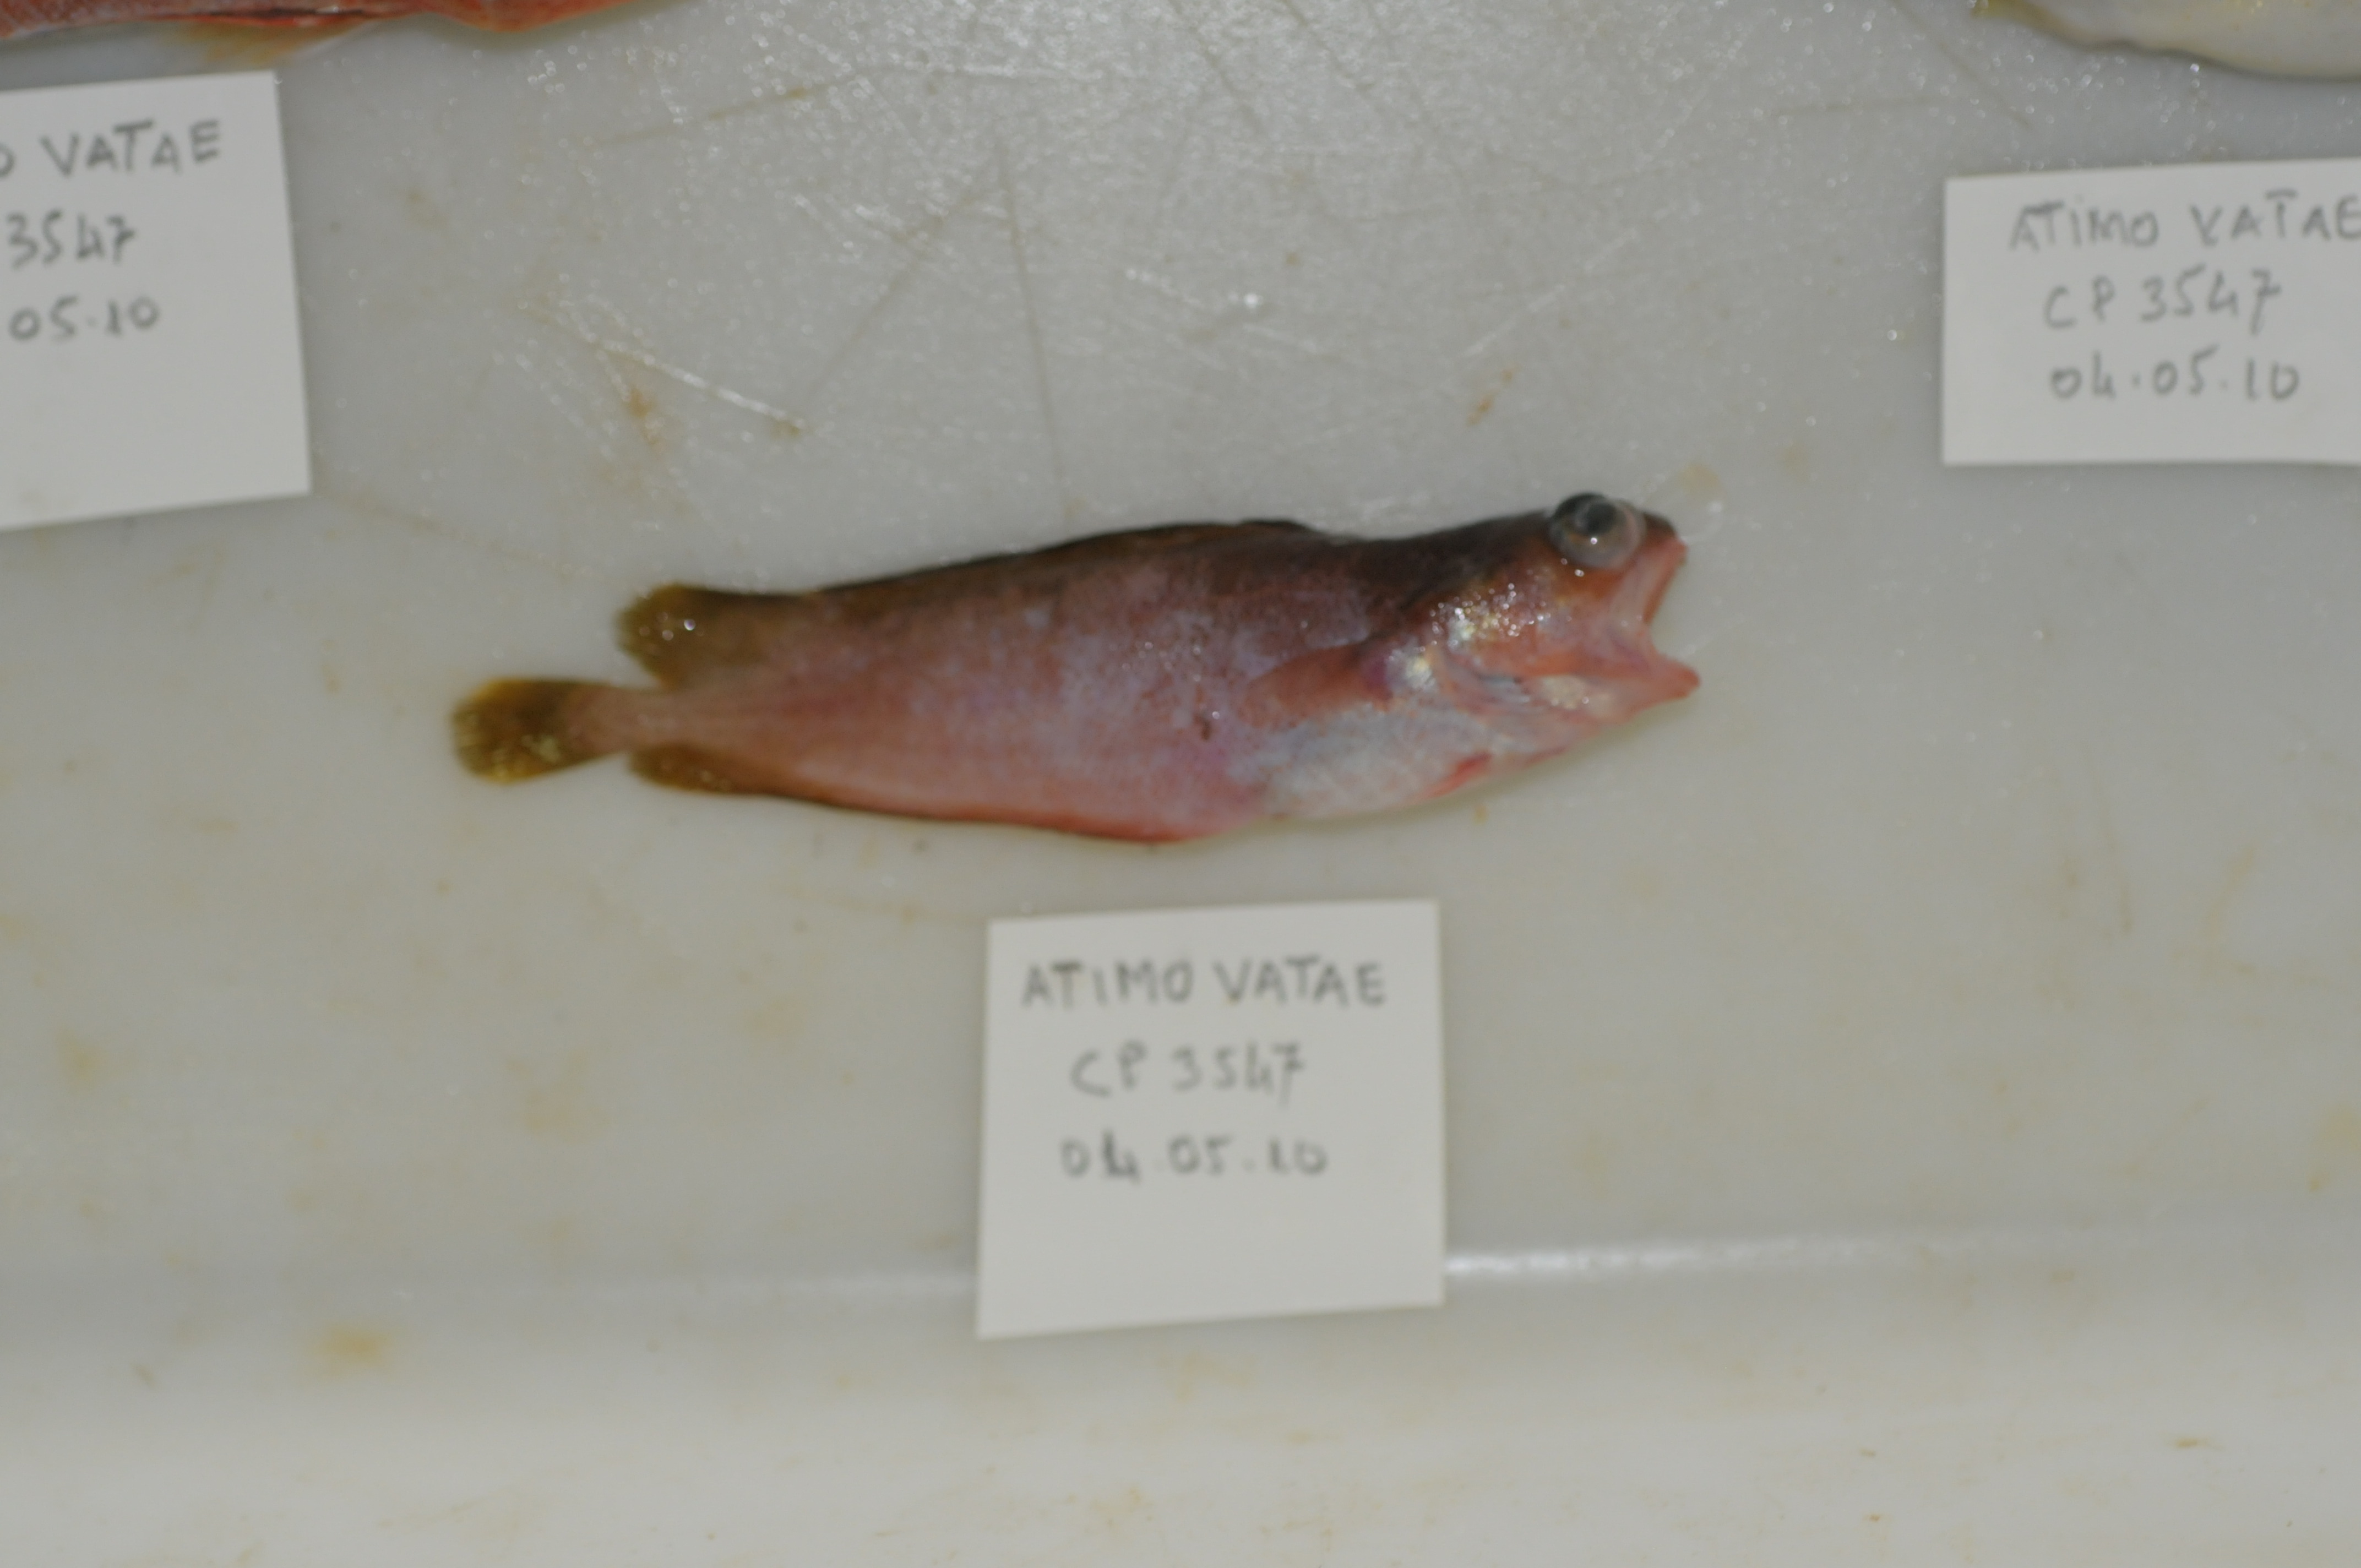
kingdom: Animalia
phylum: Chordata
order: Gadiformes
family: Moridae
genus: Laemonema
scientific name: Laemonema compressicauda
